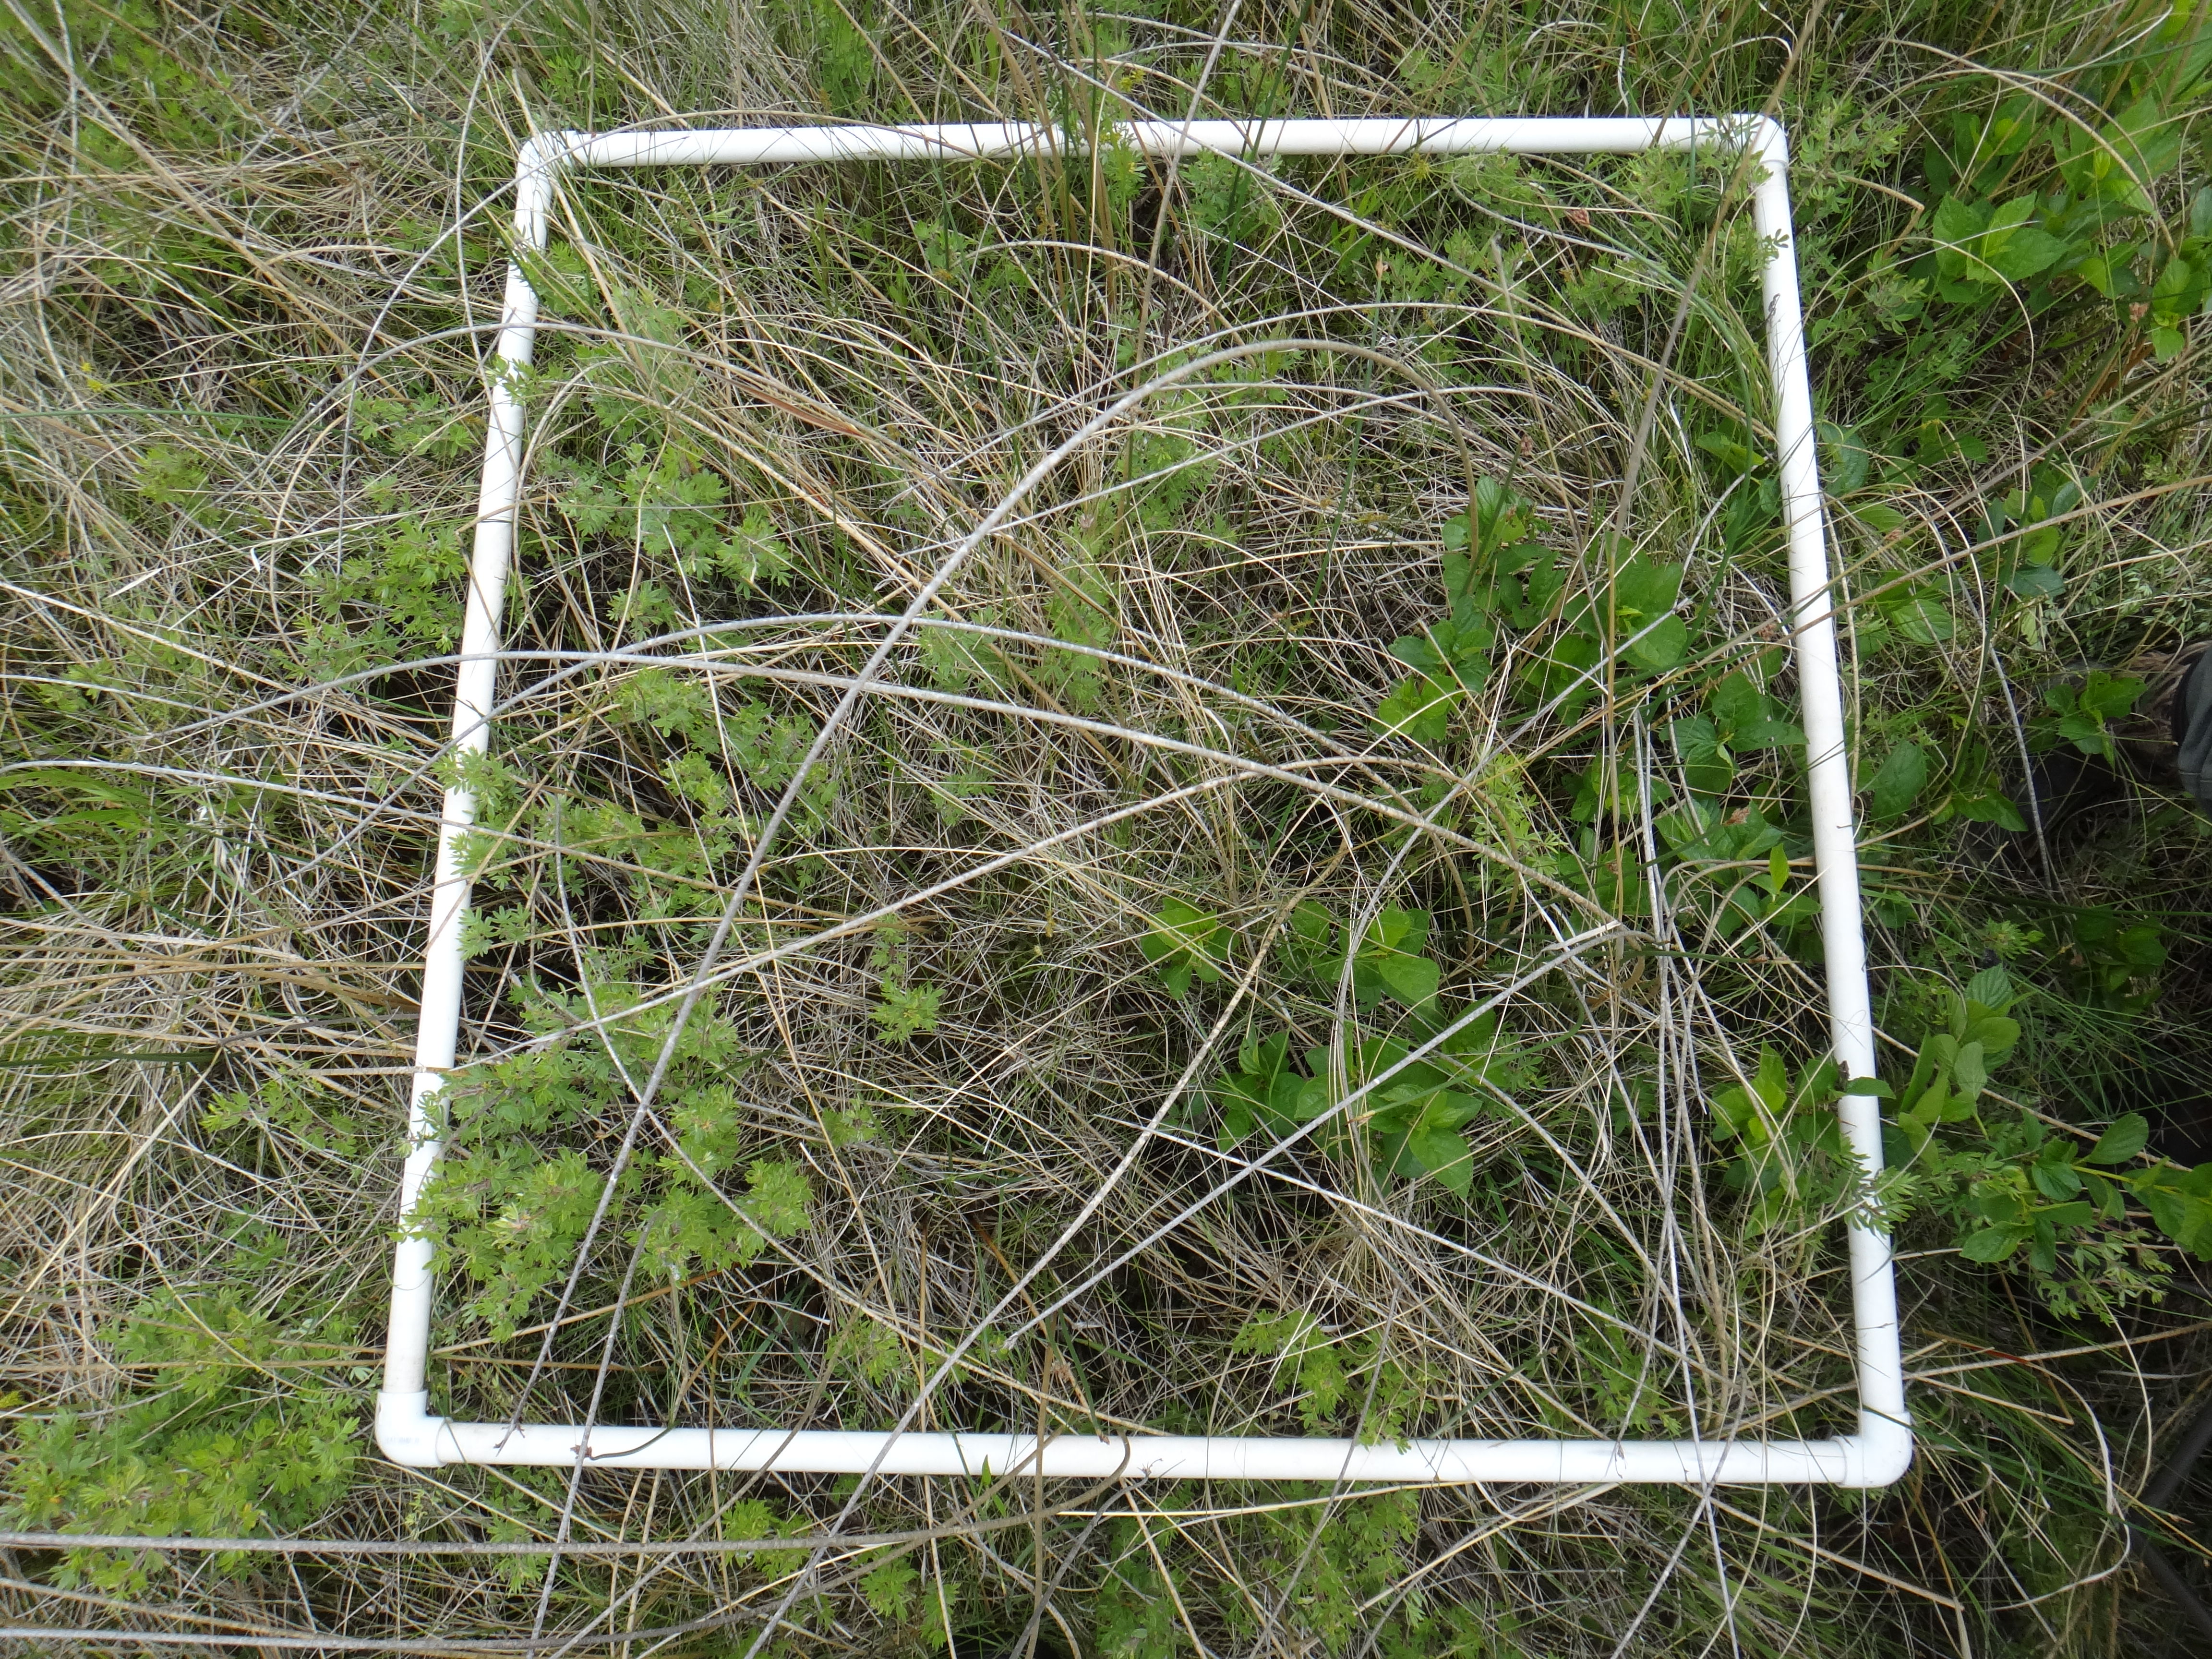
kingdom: Plantae
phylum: Tracheophyta
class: Liliopsida
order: Poales
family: Poaceae
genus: Andropogon
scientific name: Andropogon gerardi
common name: Big bluestem
